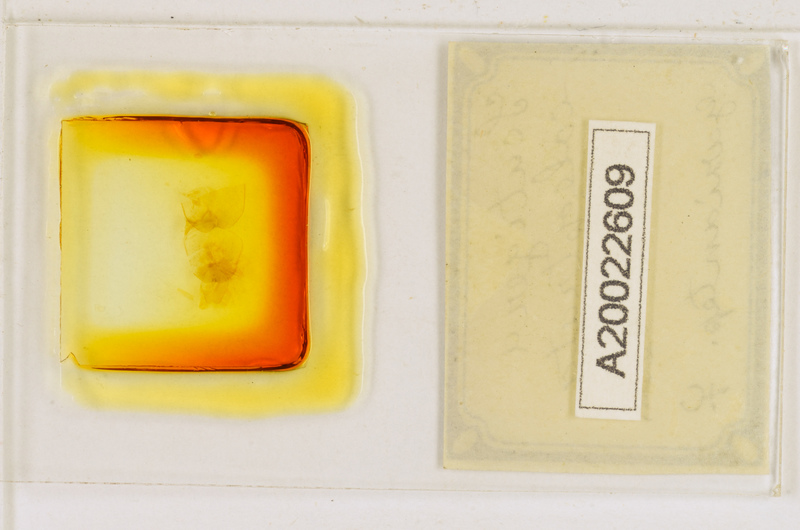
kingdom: Animalia
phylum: Arthropoda
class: Chilopoda
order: Scutigeromorpha
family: Scutigeridae
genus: Scutigera
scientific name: Scutigera coleoptrata
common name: House centipede
